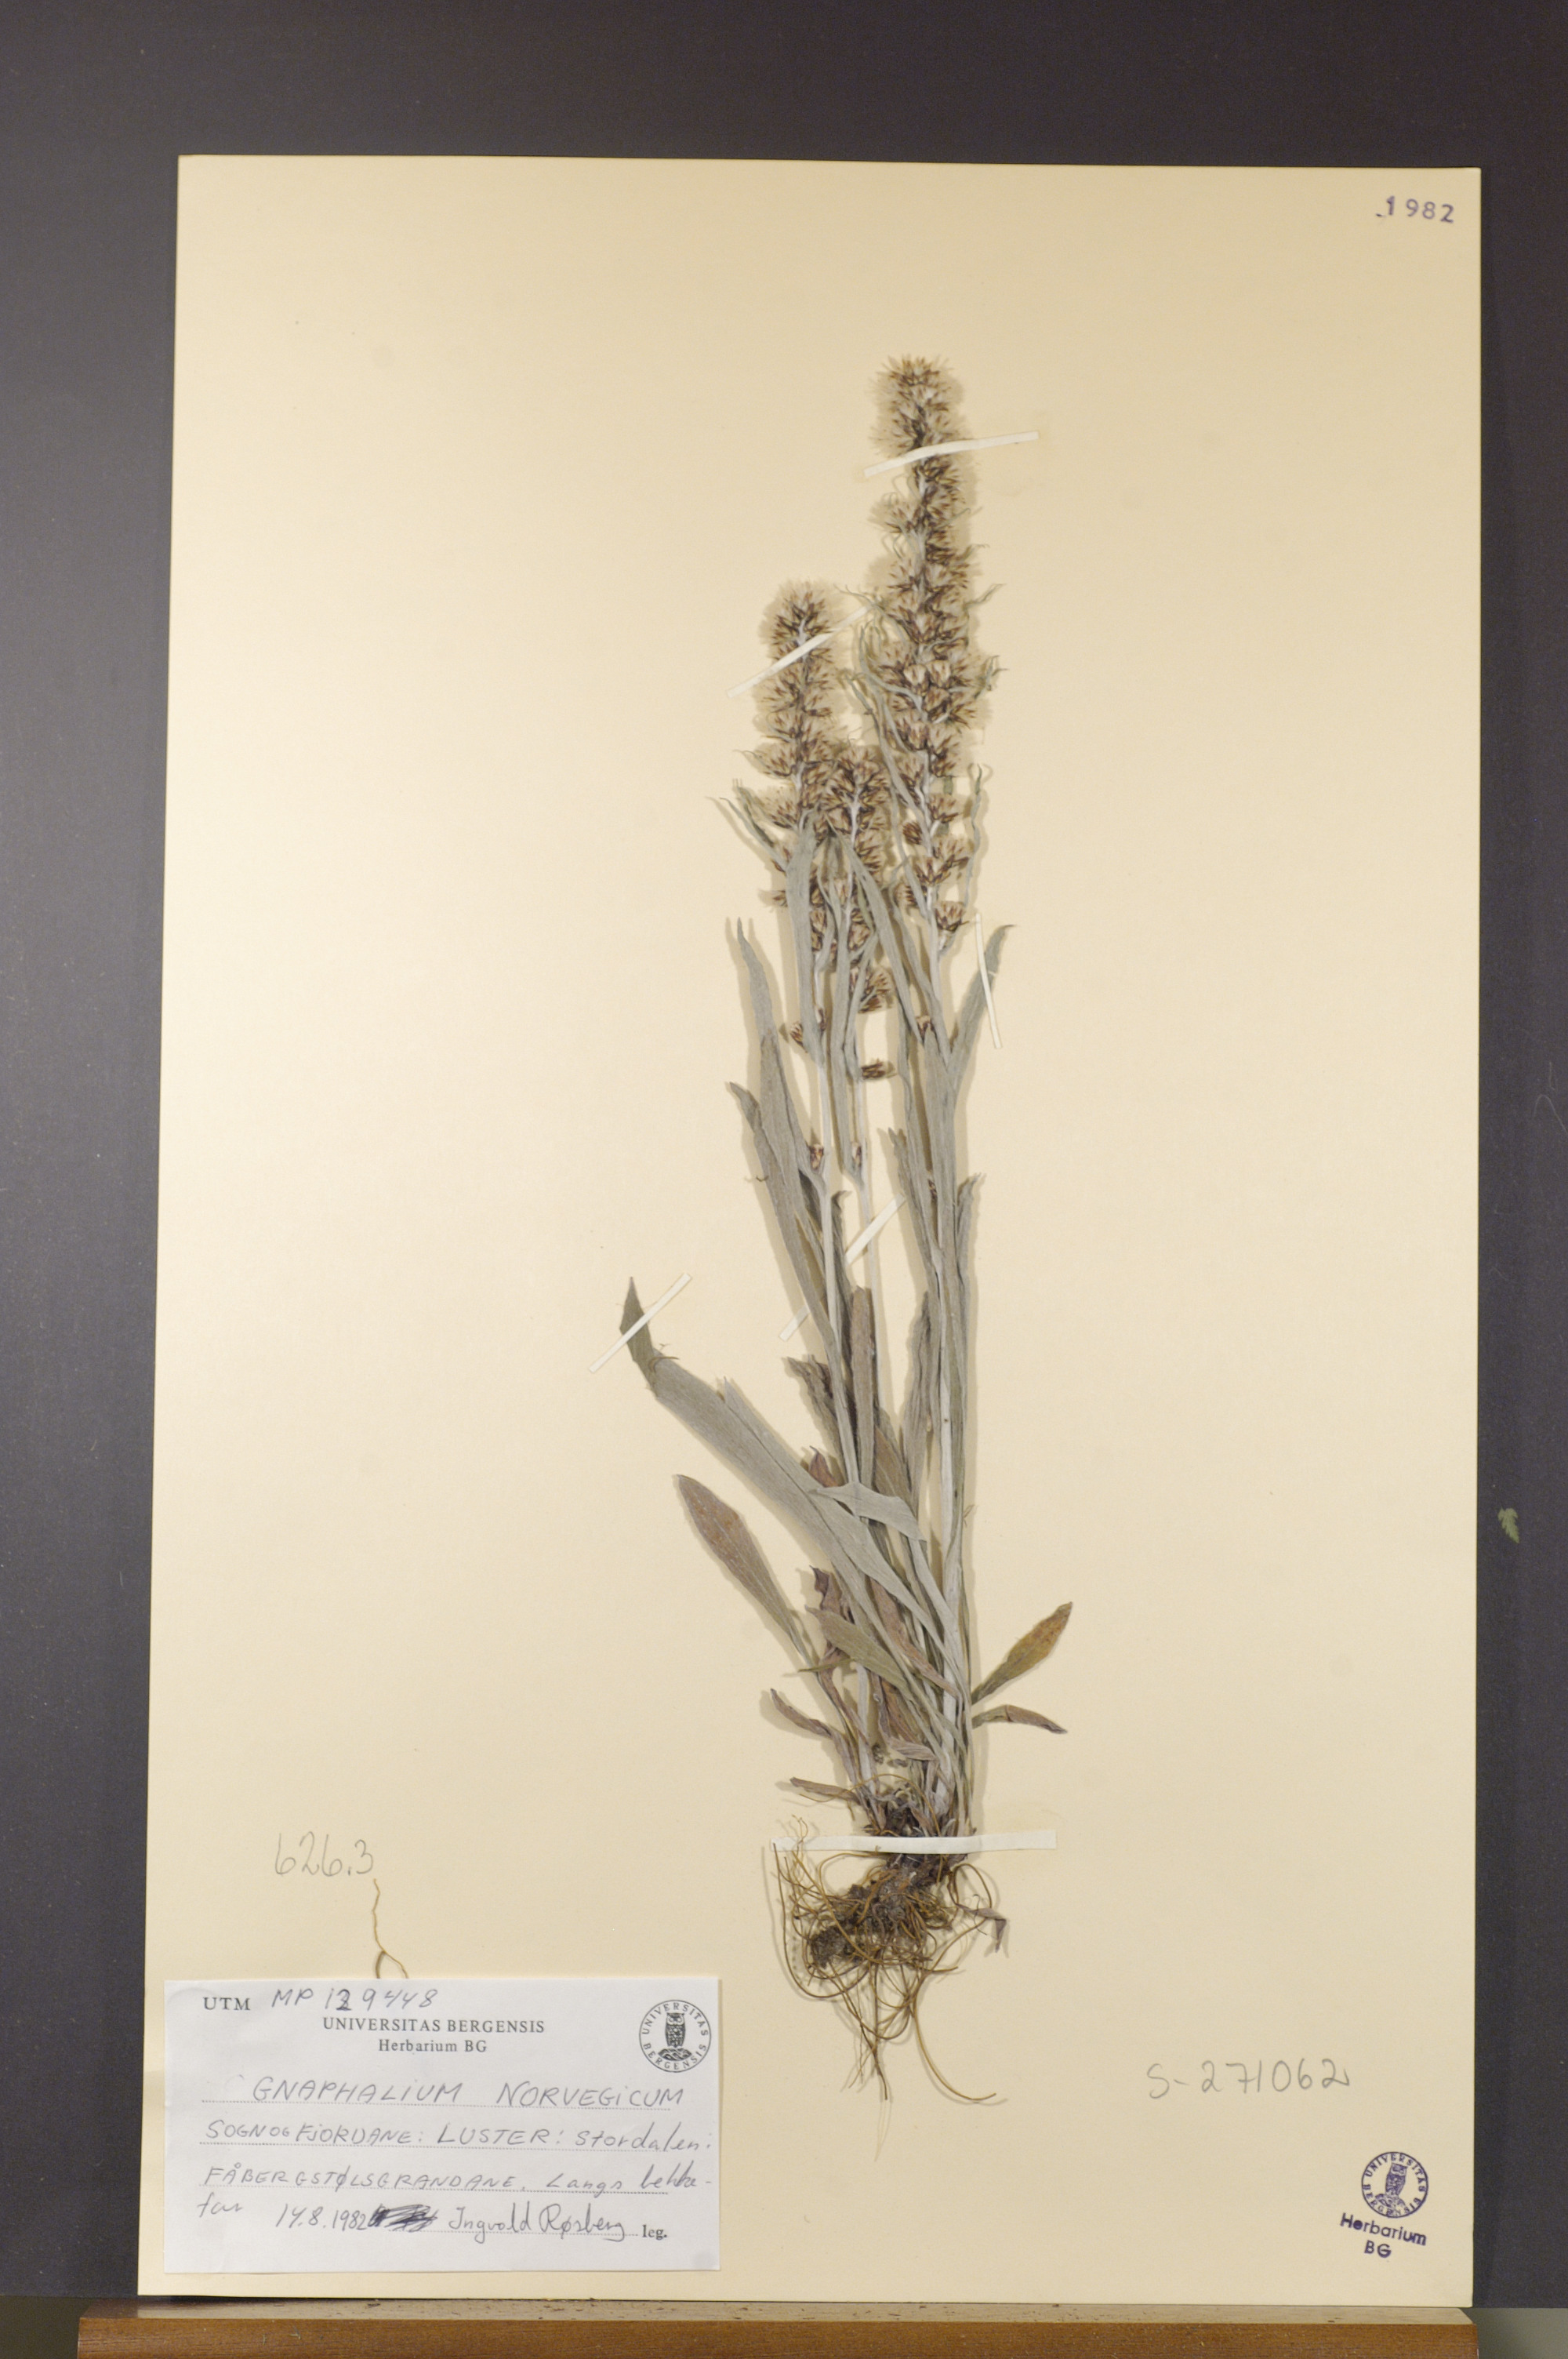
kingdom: Plantae
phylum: Tracheophyta
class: Magnoliopsida
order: Asterales
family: Asteraceae
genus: Omalotheca
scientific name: Omalotheca norvegica
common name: Norwegian arctic-cudweed
